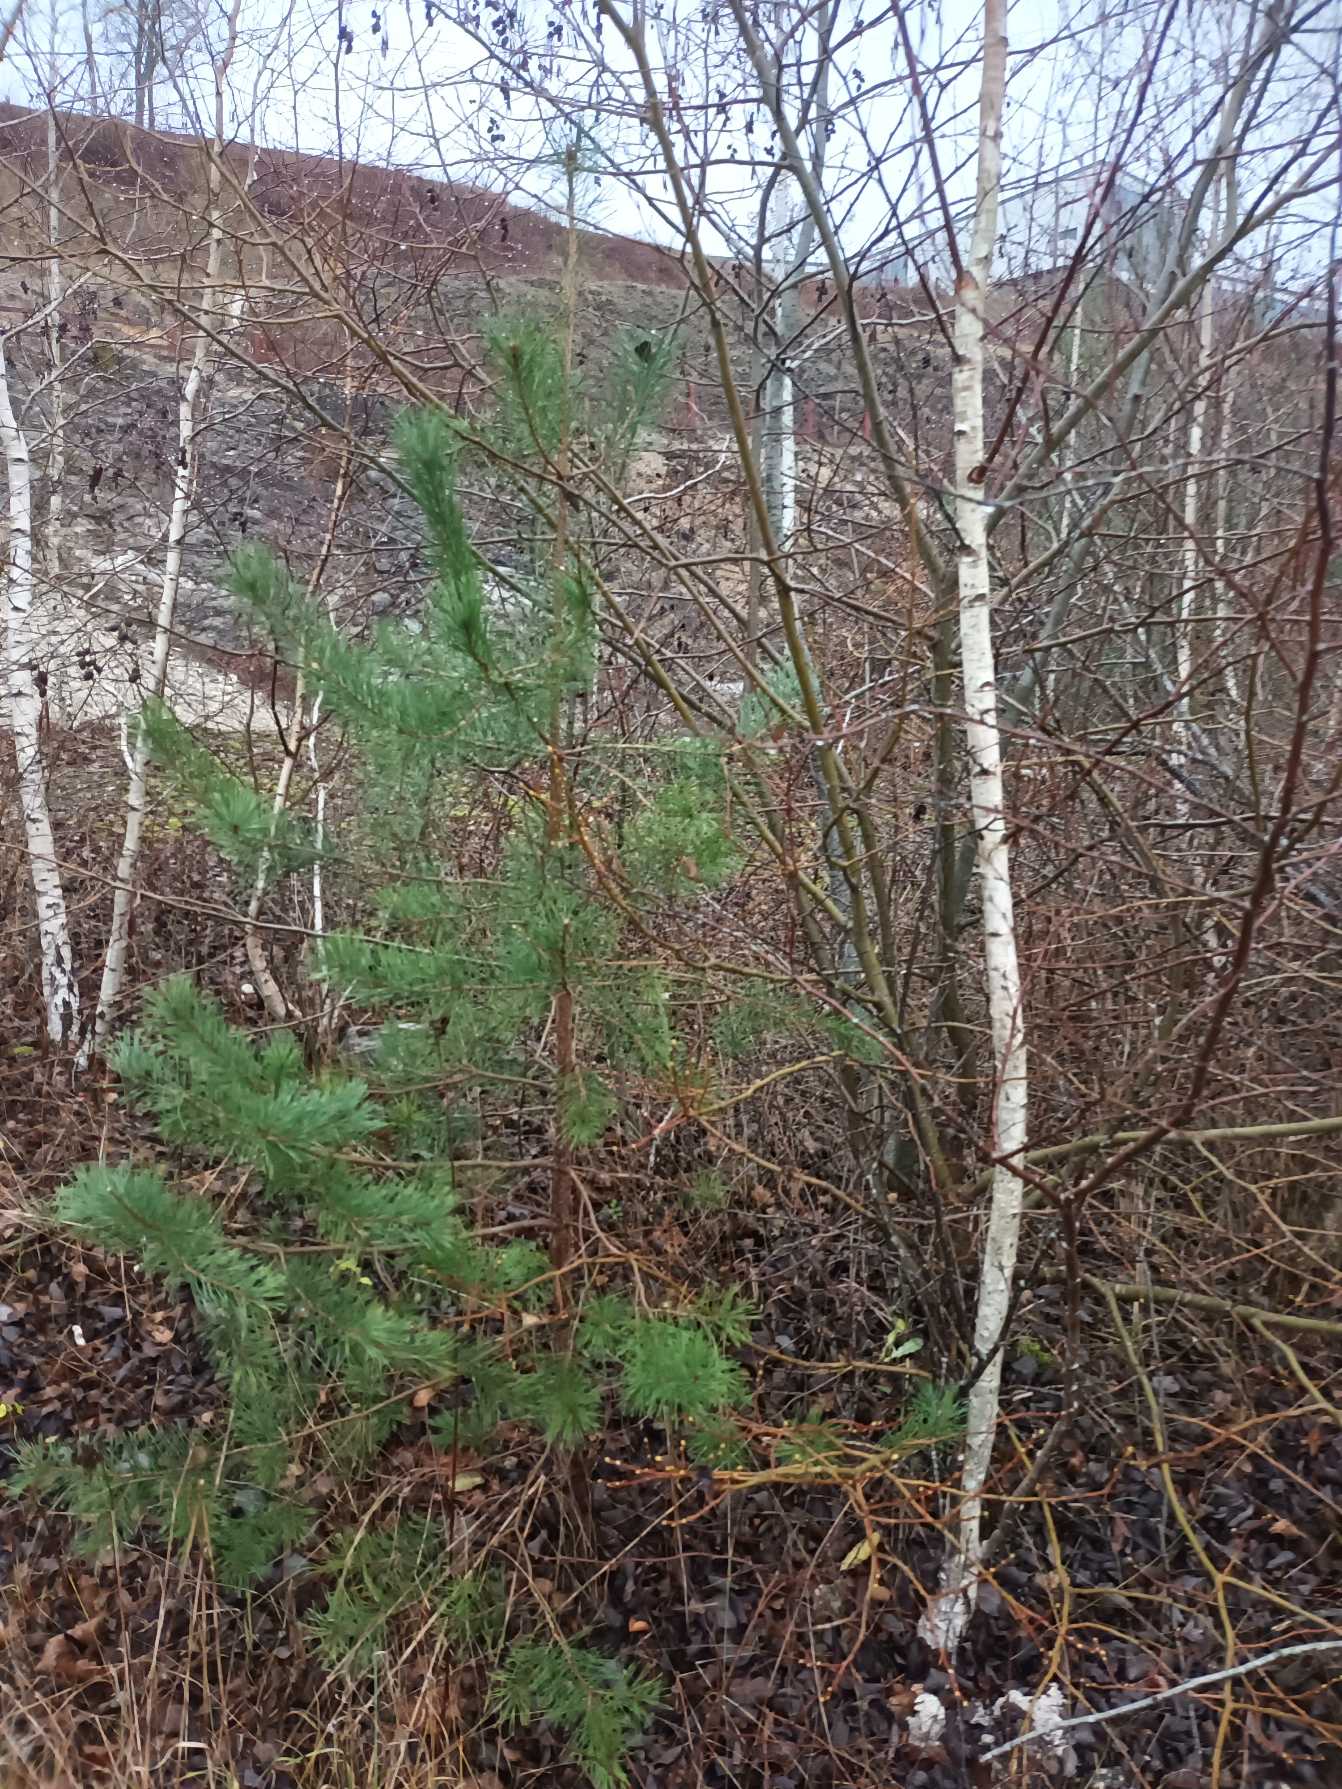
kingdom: Plantae
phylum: Tracheophyta
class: Pinopsida
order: Pinales
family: Pinaceae
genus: Pinus
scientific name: Pinus sylvestris
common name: Skov-fyr
